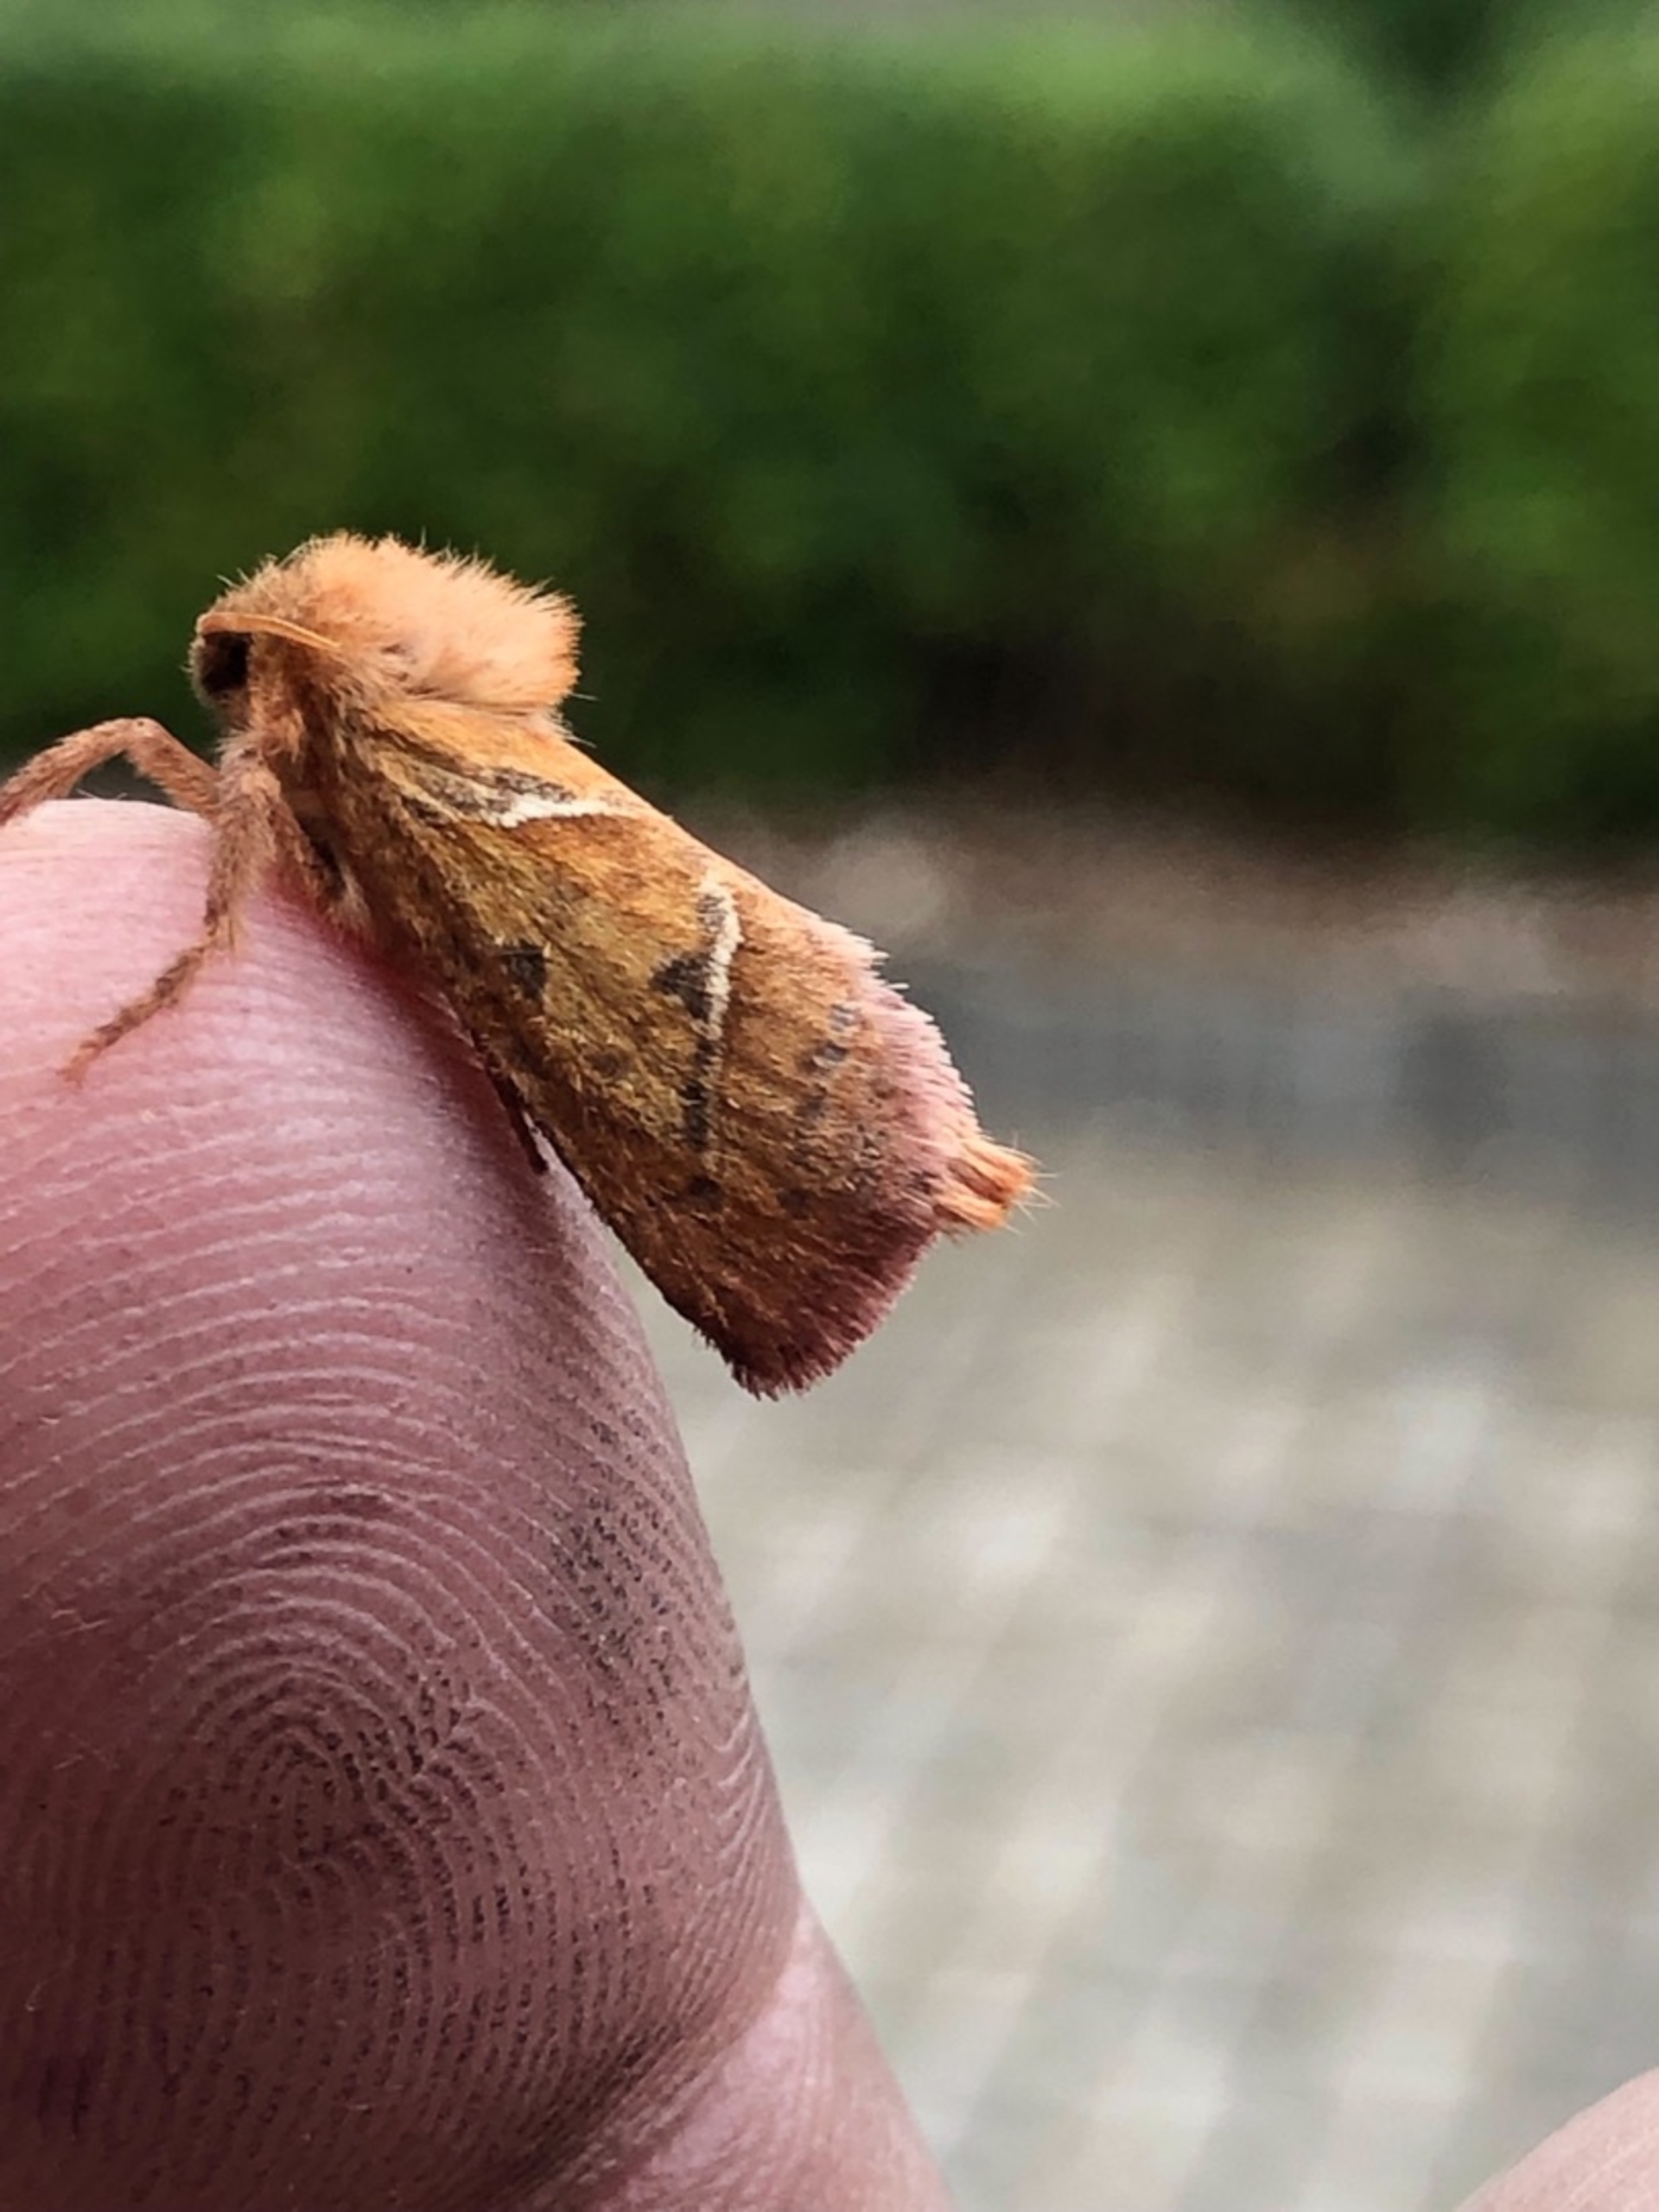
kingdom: Animalia
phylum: Arthropoda
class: Insecta
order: Lepidoptera
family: Hepialidae
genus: Triodia
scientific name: Triodia sylvina
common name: Skræpperodæder
